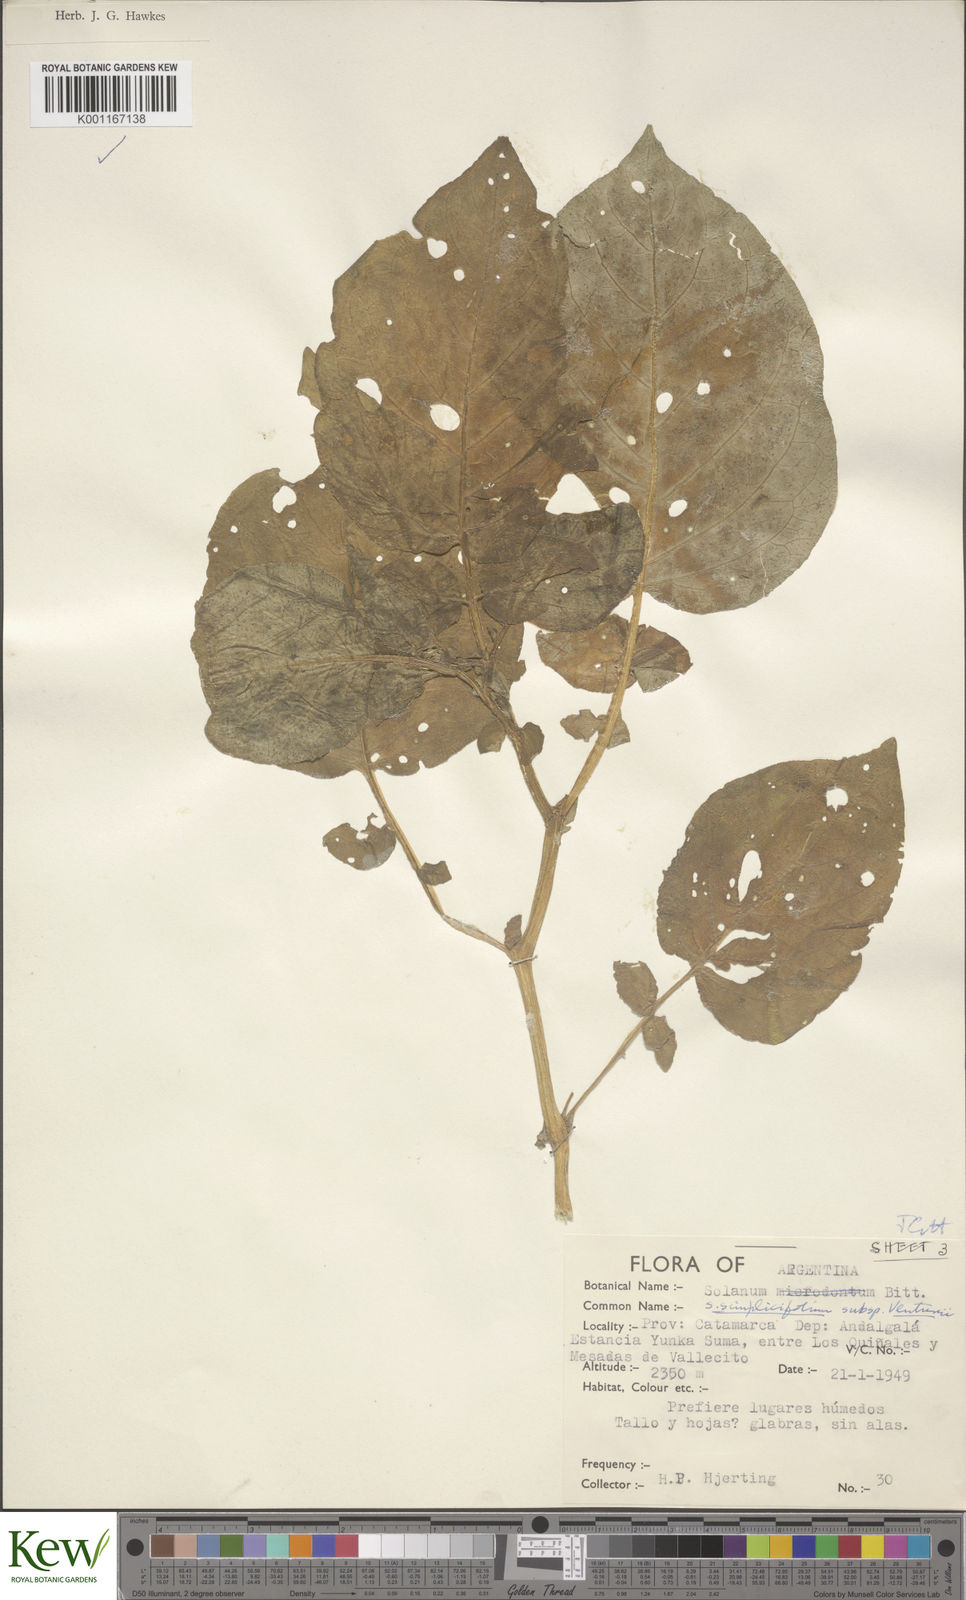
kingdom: Plantae
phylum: Tracheophyta
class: Magnoliopsida
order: Solanales
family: Solanaceae
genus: Solanum
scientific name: Solanum venturii
